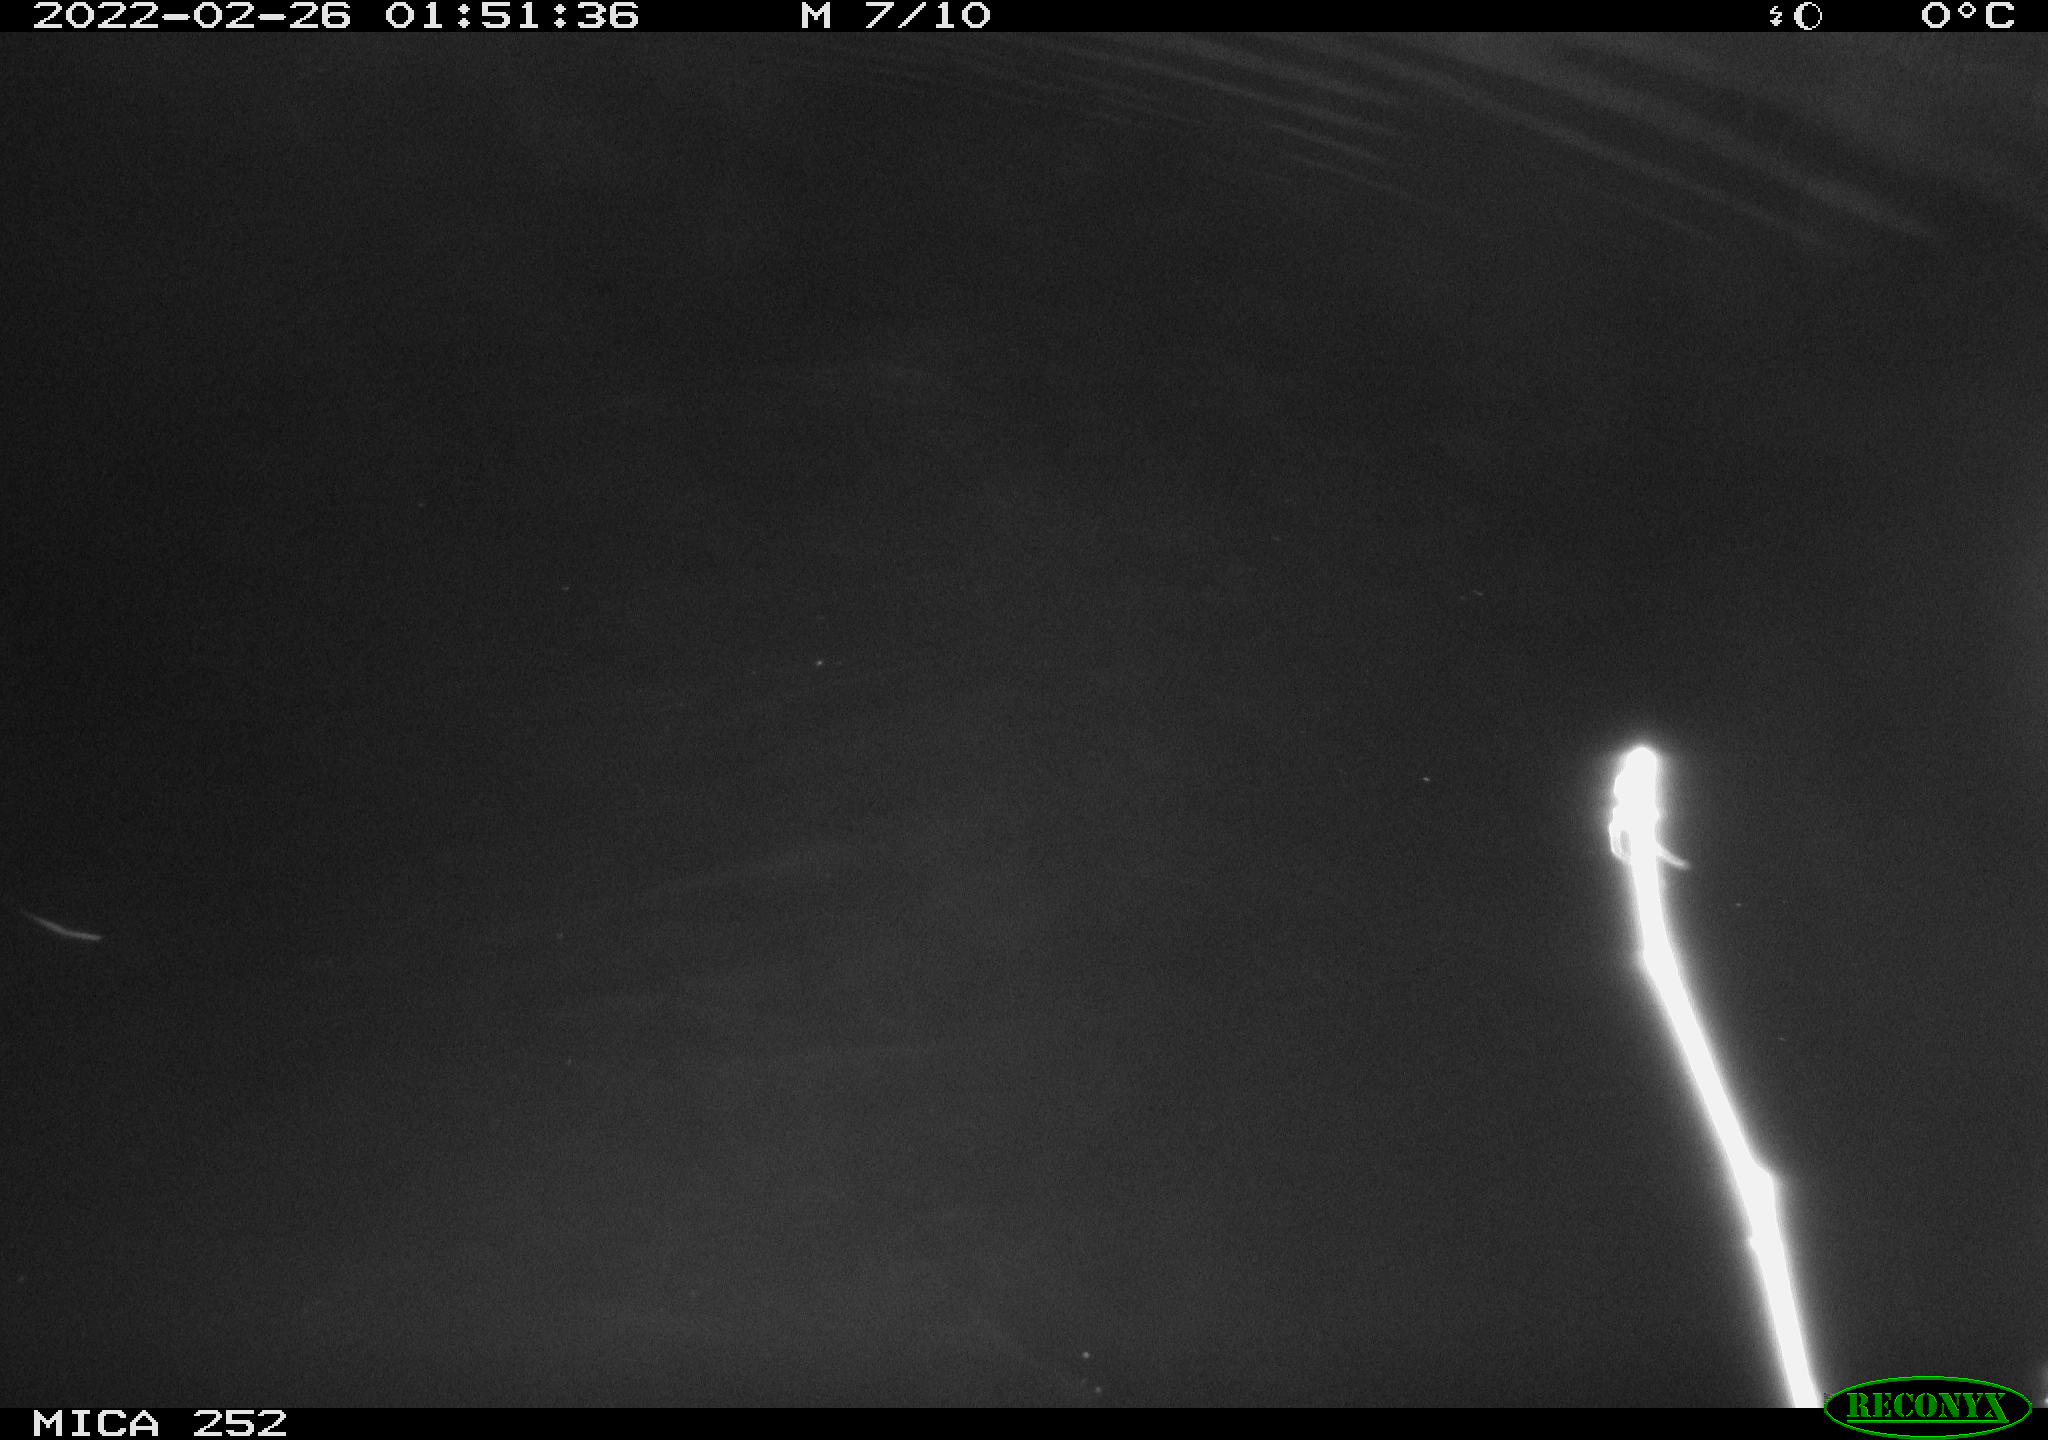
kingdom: Animalia
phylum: Chordata
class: Mammalia
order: Rodentia
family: Castoridae
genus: Castor
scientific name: Castor fiber
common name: Eurasian beaver
